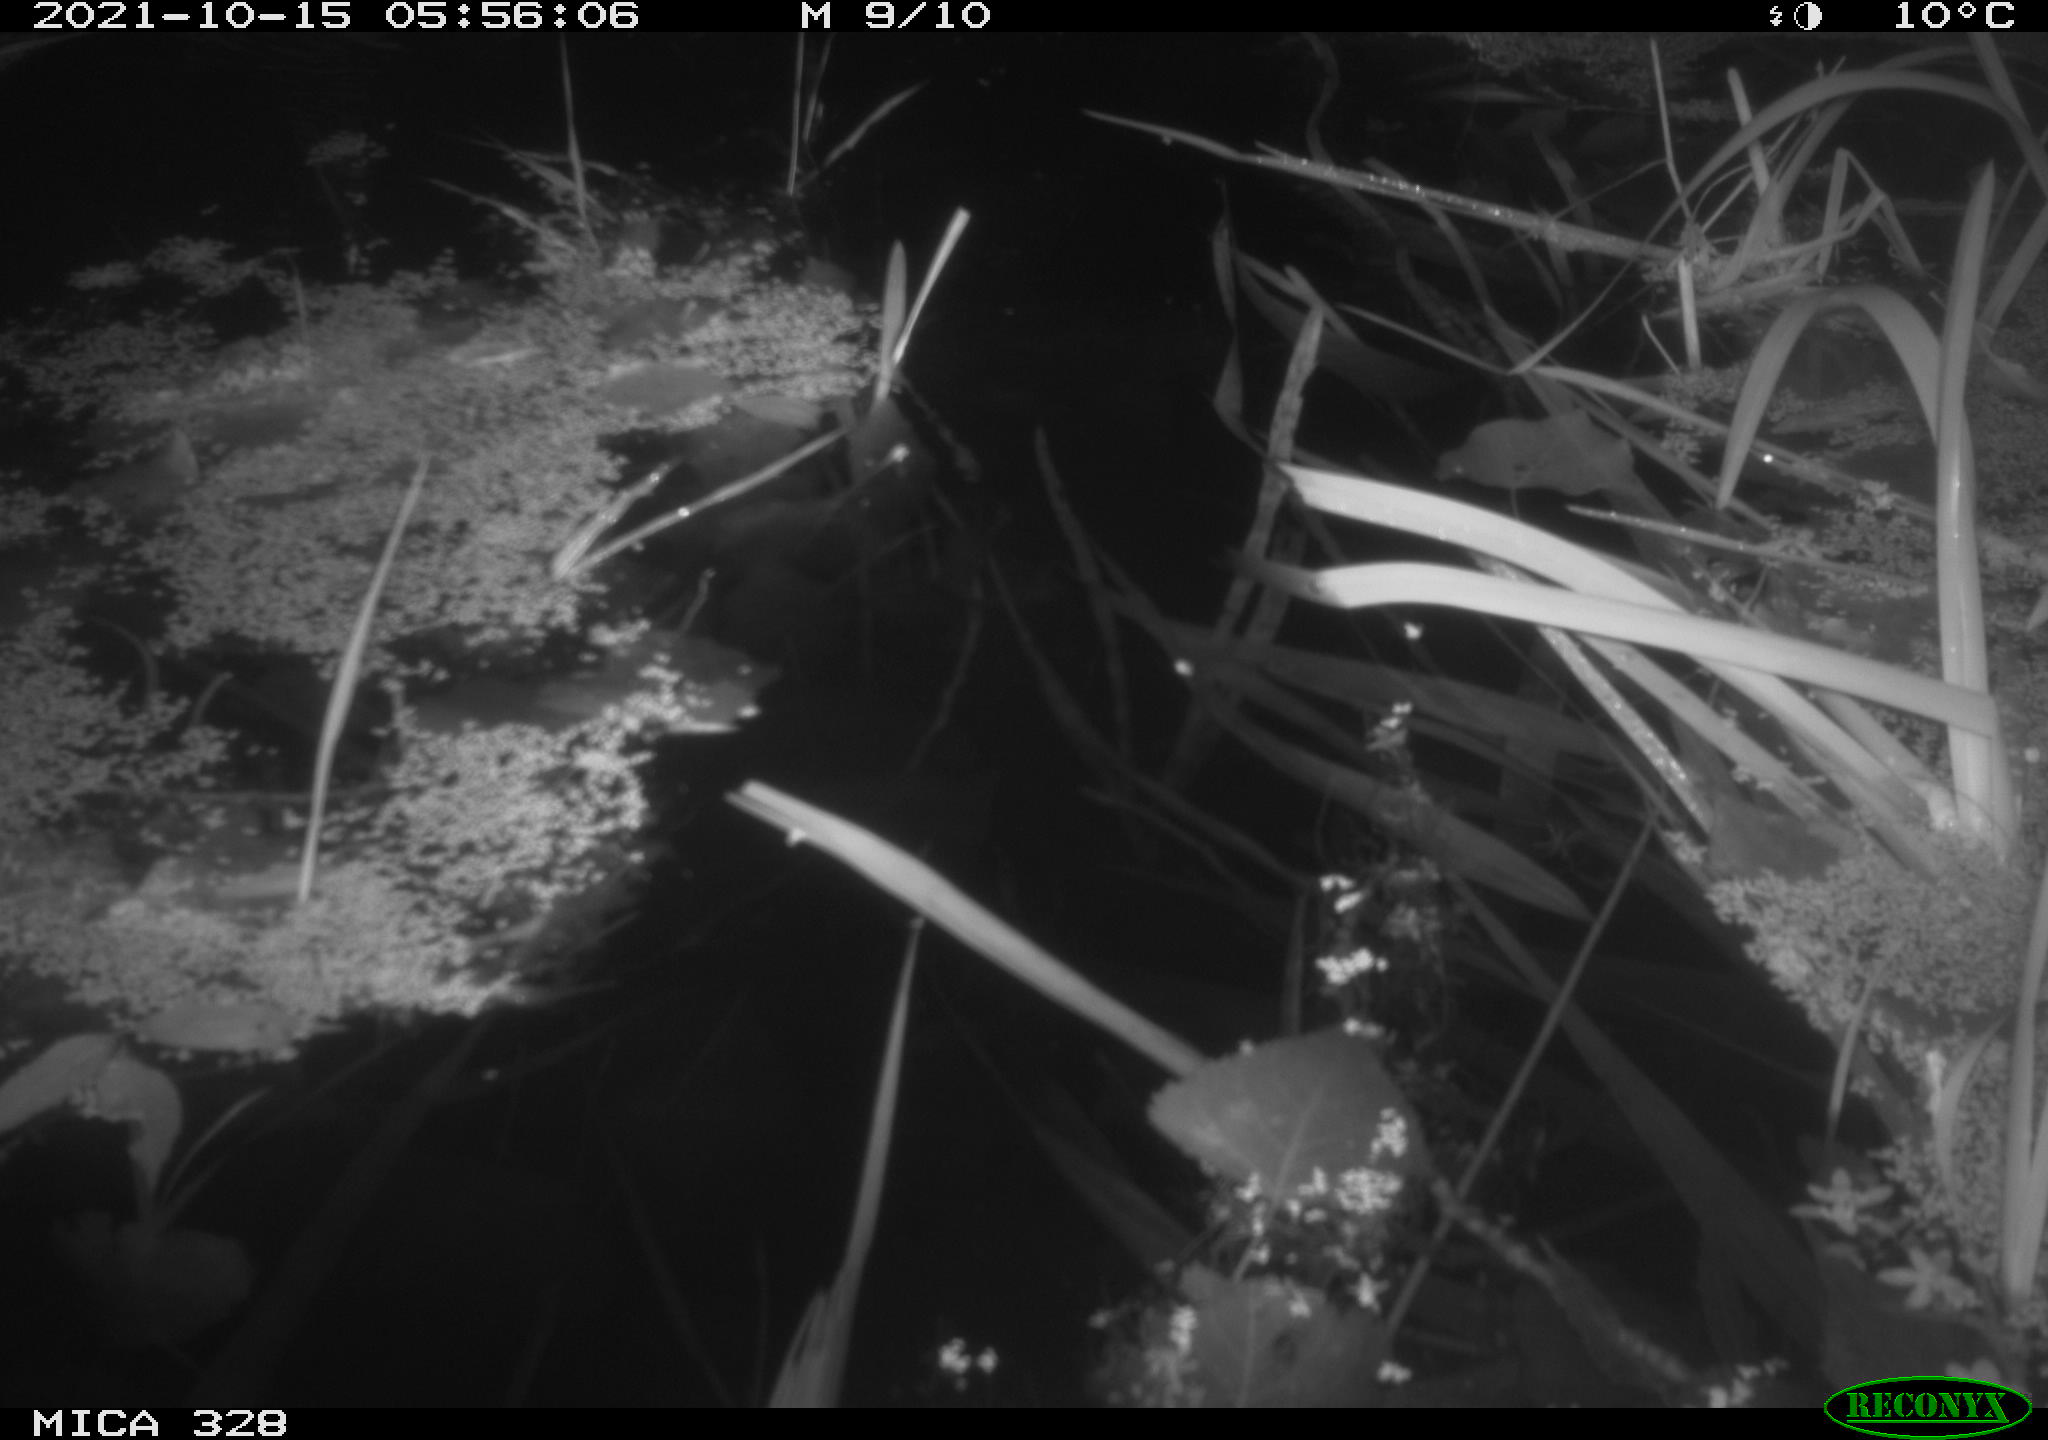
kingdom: Animalia
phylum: Chordata
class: Mammalia
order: Rodentia
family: Muridae
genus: Rattus
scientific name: Rattus norvegicus
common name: Brown rat
